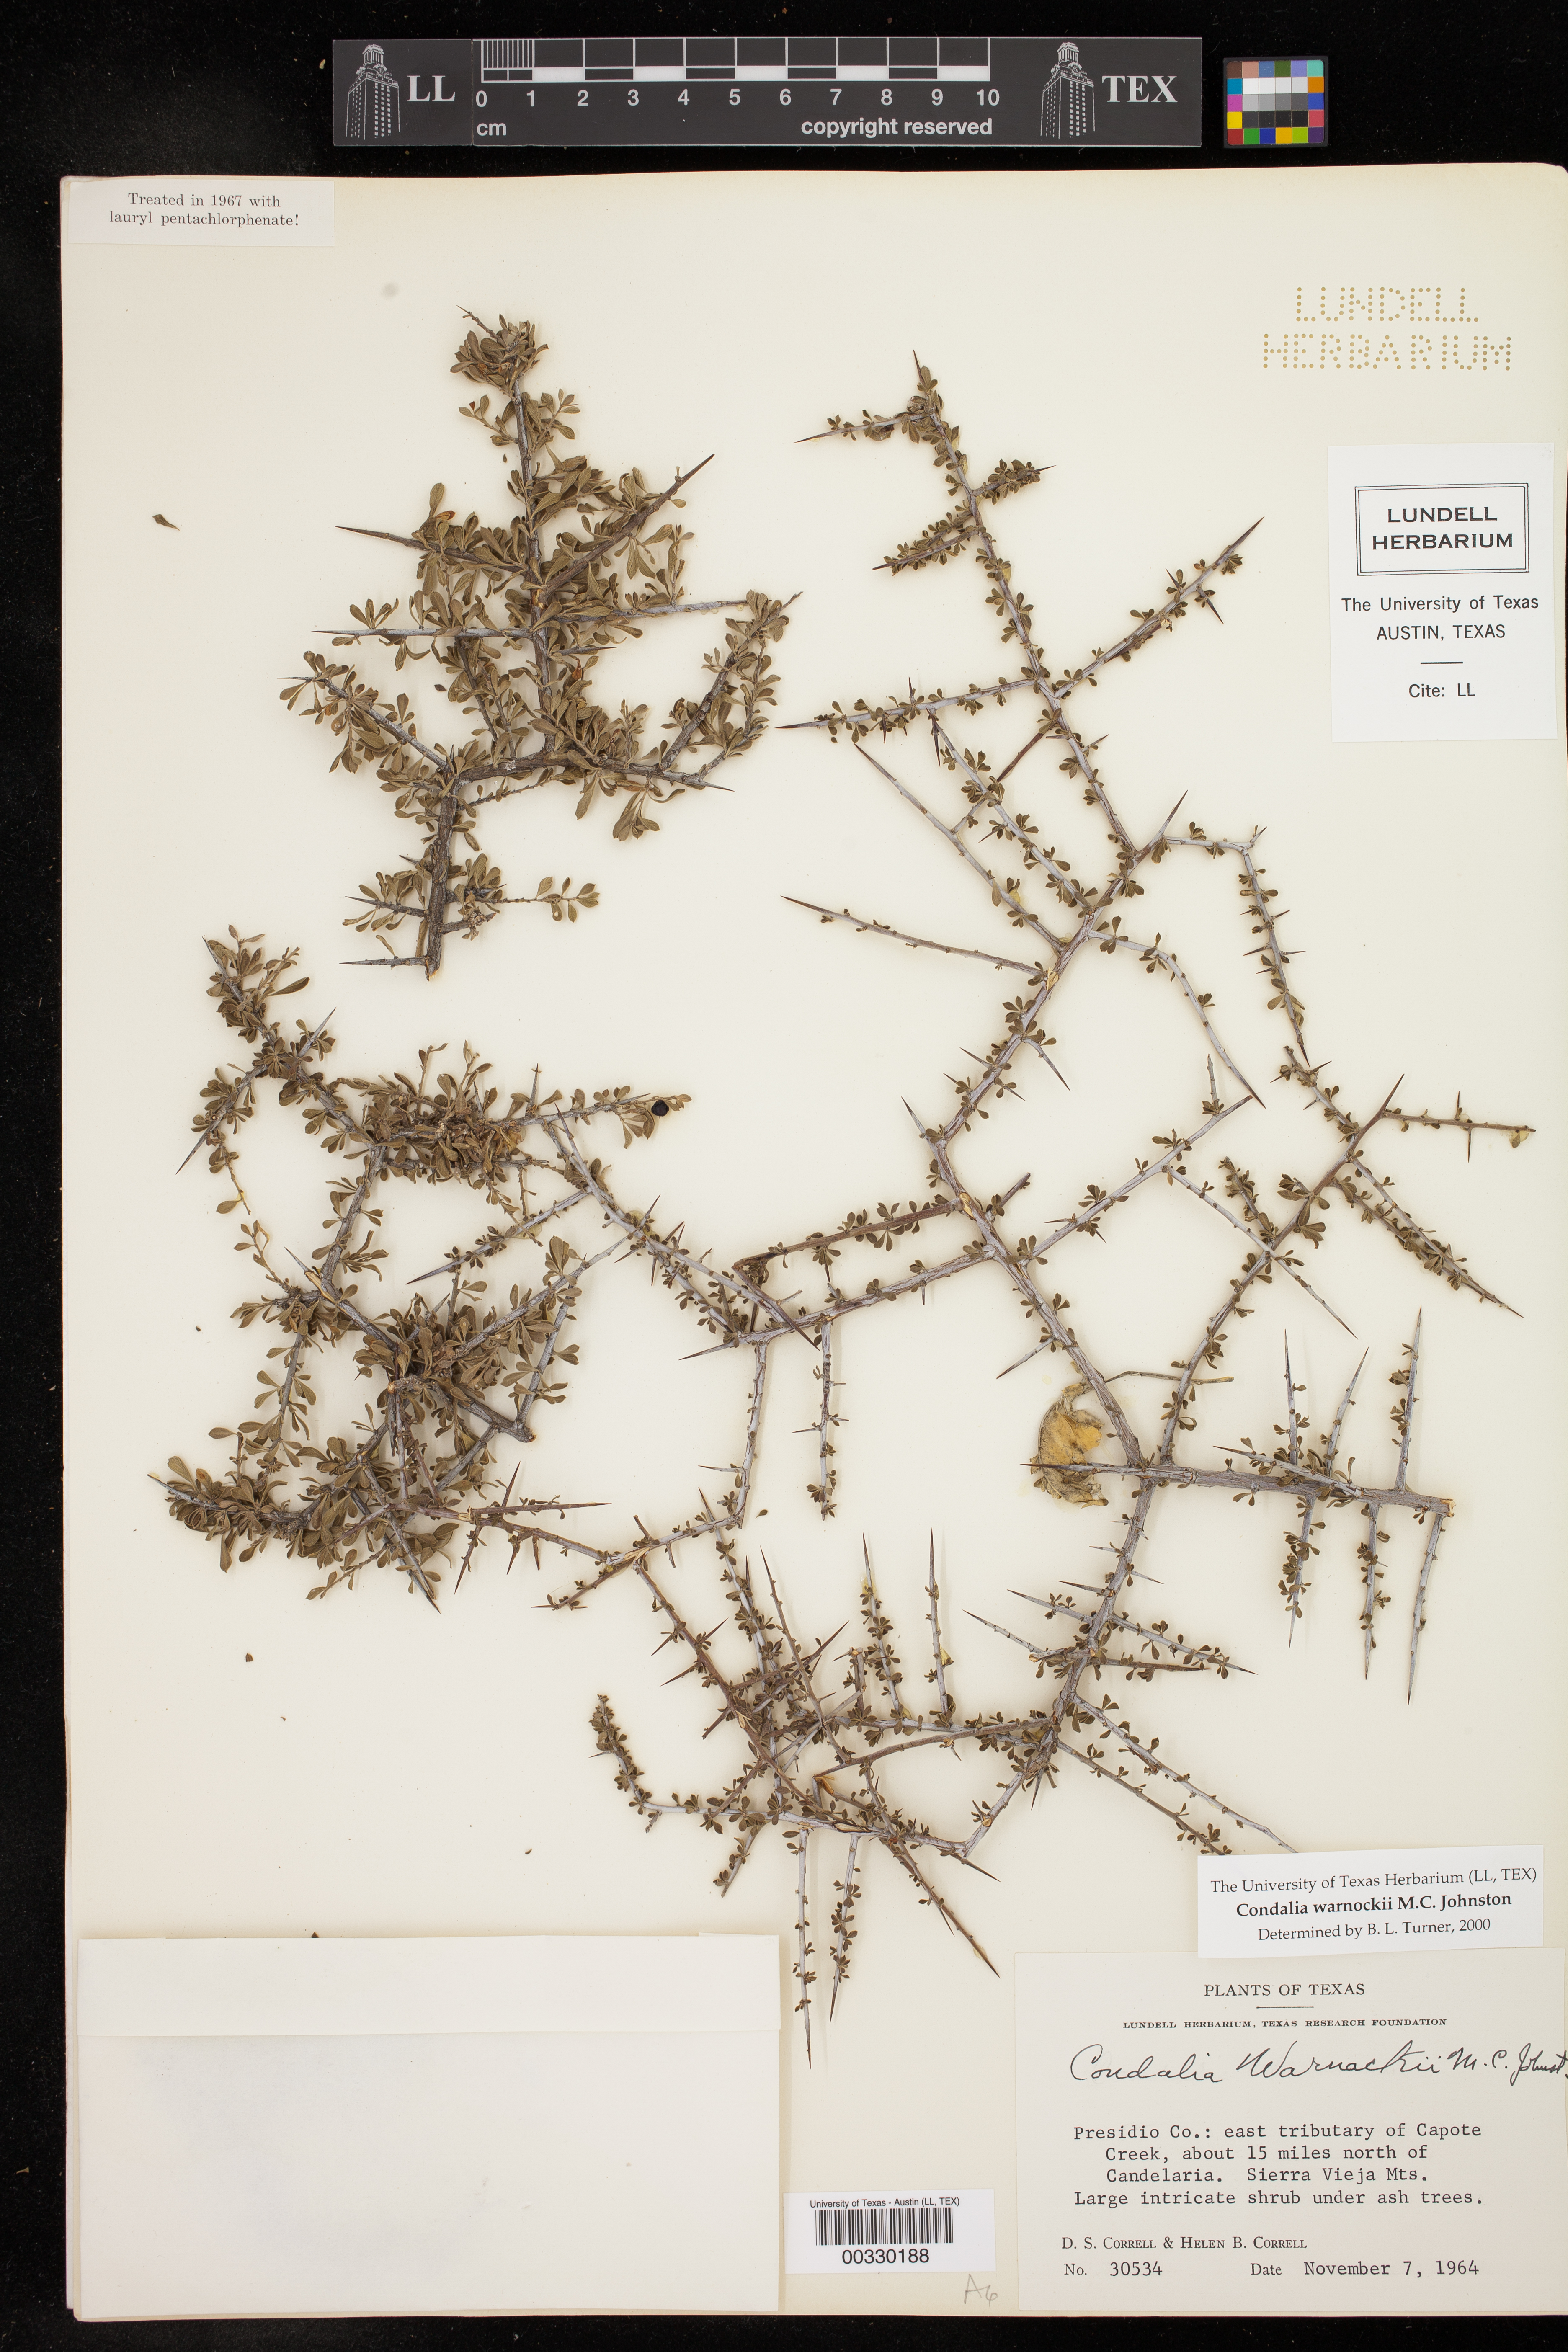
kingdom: Plantae
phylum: Tracheophyta
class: Magnoliopsida
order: Rosales
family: Rhamnaceae
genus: Condalia
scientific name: Condalia warnockii
